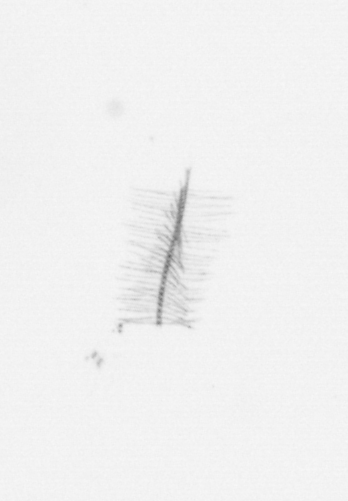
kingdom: Chromista
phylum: Ochrophyta
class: Bacillariophyceae
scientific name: Bacillariophyceae
